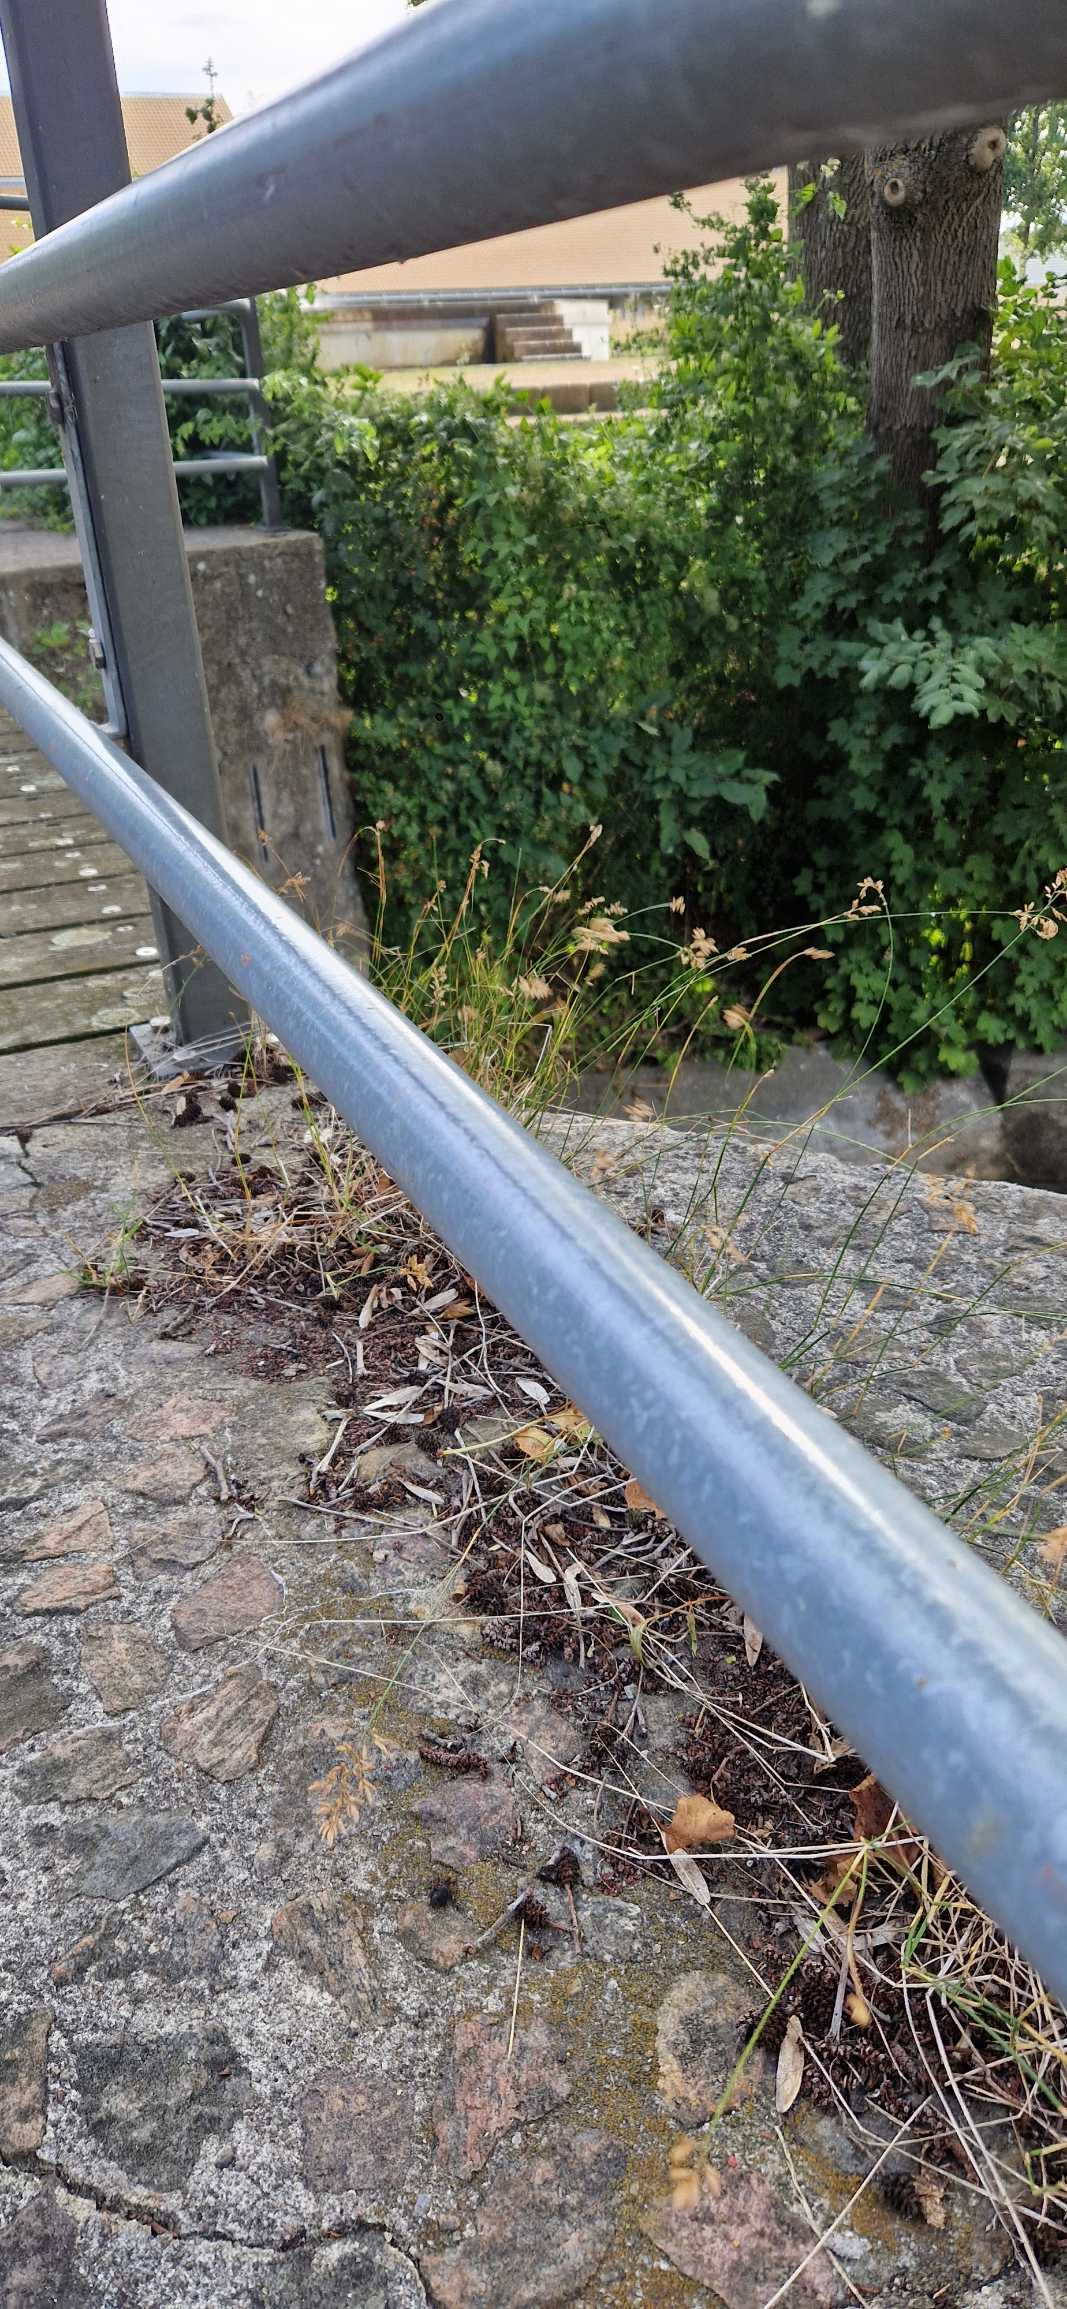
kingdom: Plantae
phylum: Tracheophyta
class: Liliopsida
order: Poales
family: Poaceae
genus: Poa
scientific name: Poa compressa
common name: Fladstrået rapgræs
